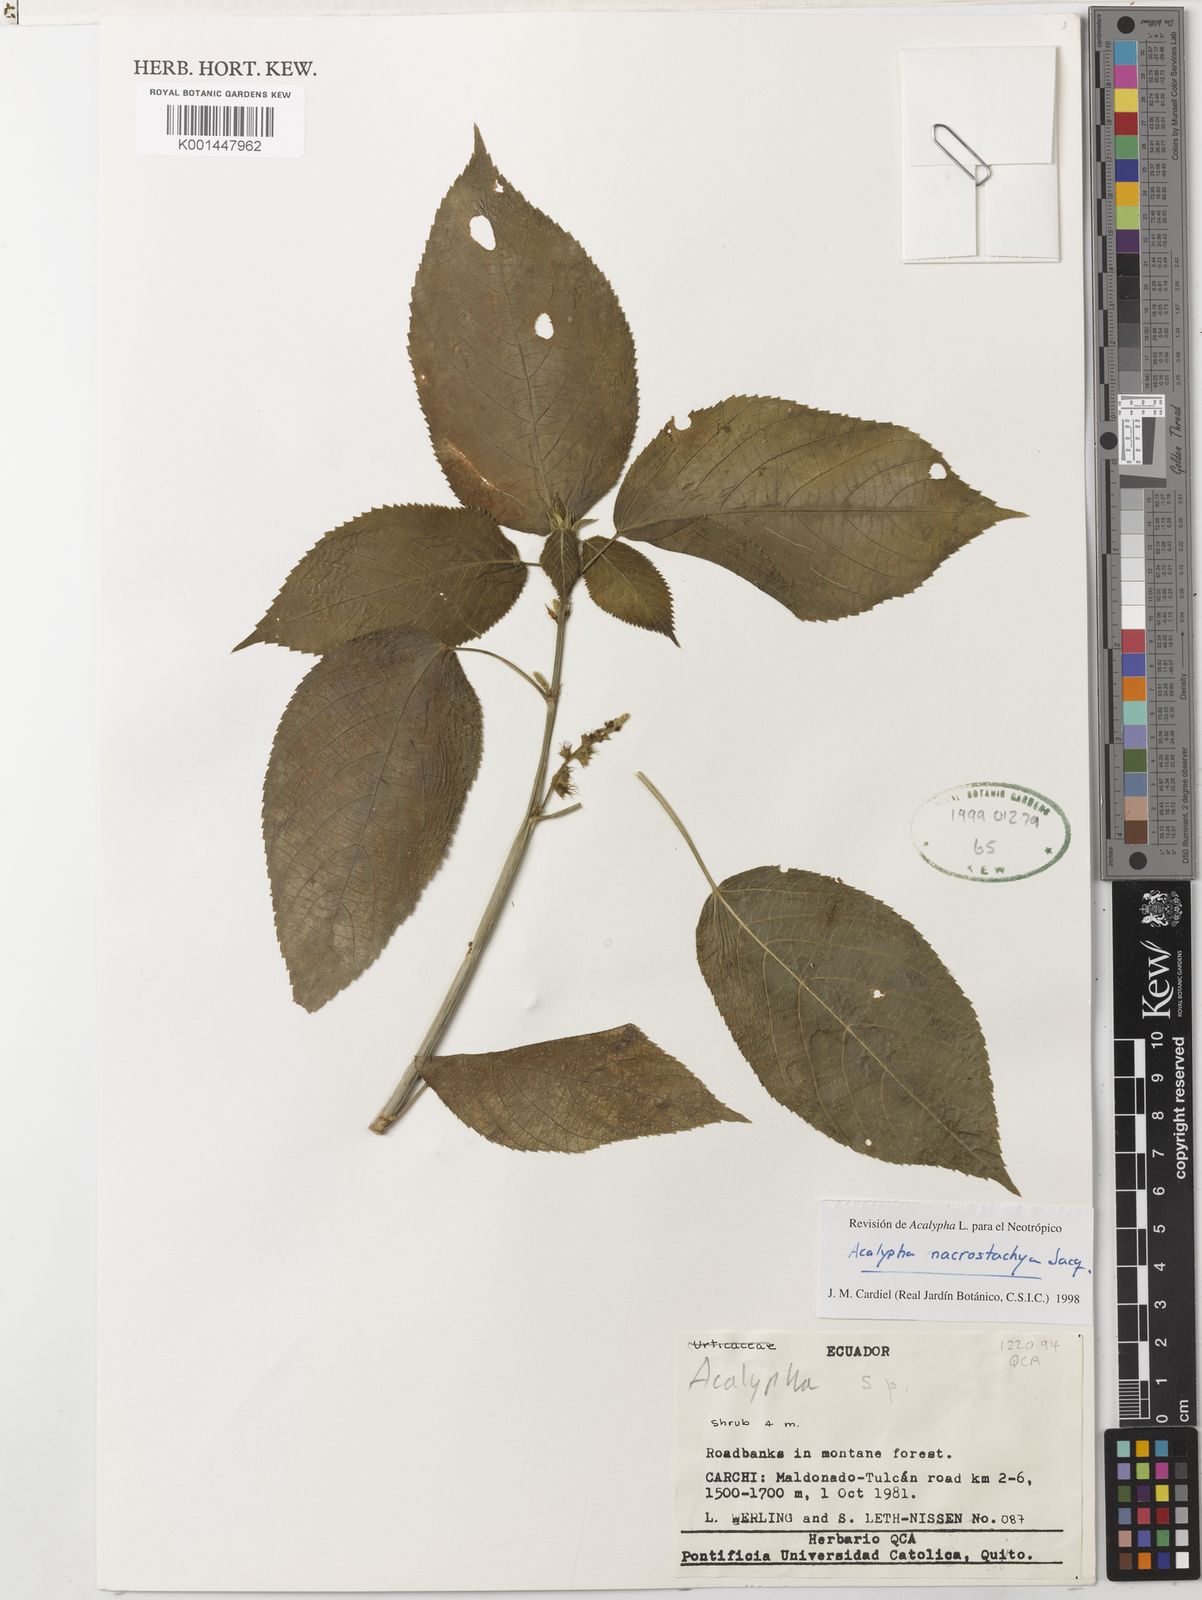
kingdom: Plantae
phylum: Tracheophyta
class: Magnoliopsida
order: Malpighiales
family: Euphorbiaceae
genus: Acalypha
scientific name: Acalypha macrostachya
